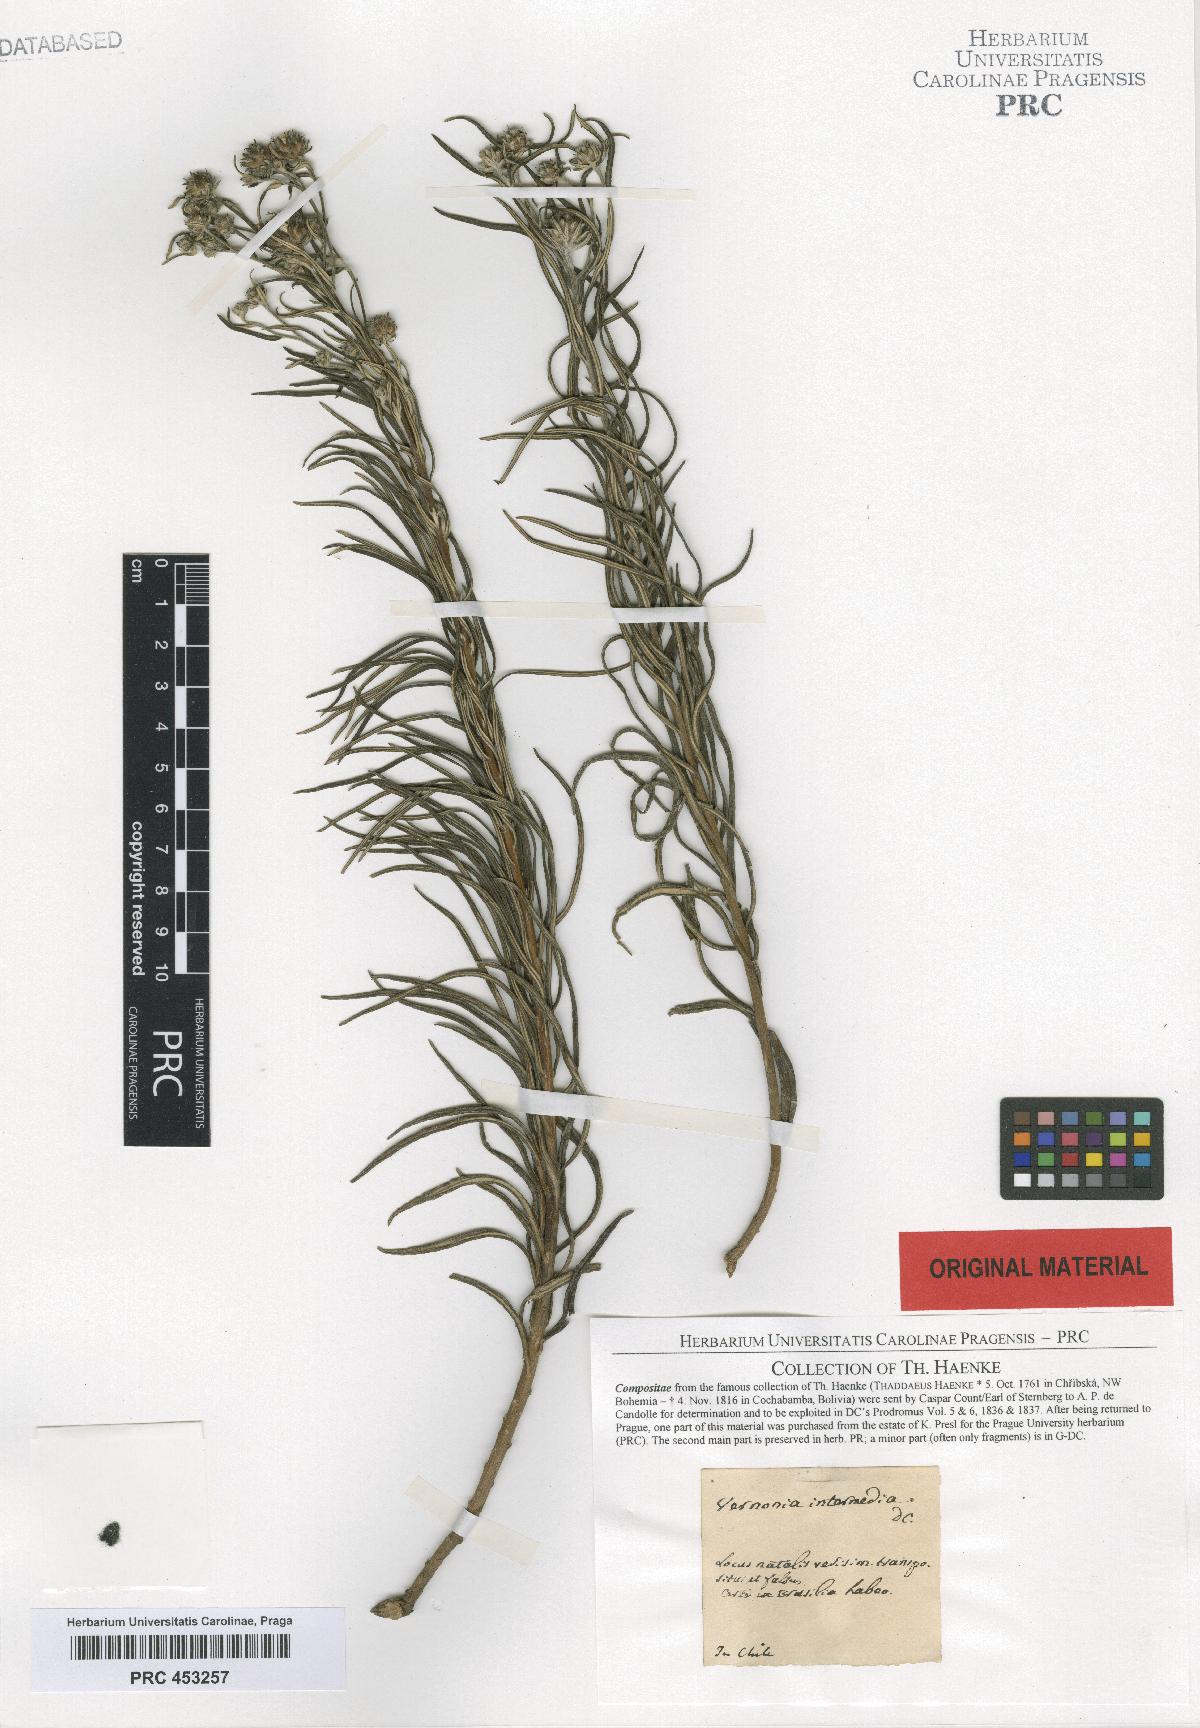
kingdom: Plantae
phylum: Tracheophyta
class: Magnoliopsida
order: Asterales
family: Asteraceae
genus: Lessingianthus
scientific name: Lessingianthus intermedius
